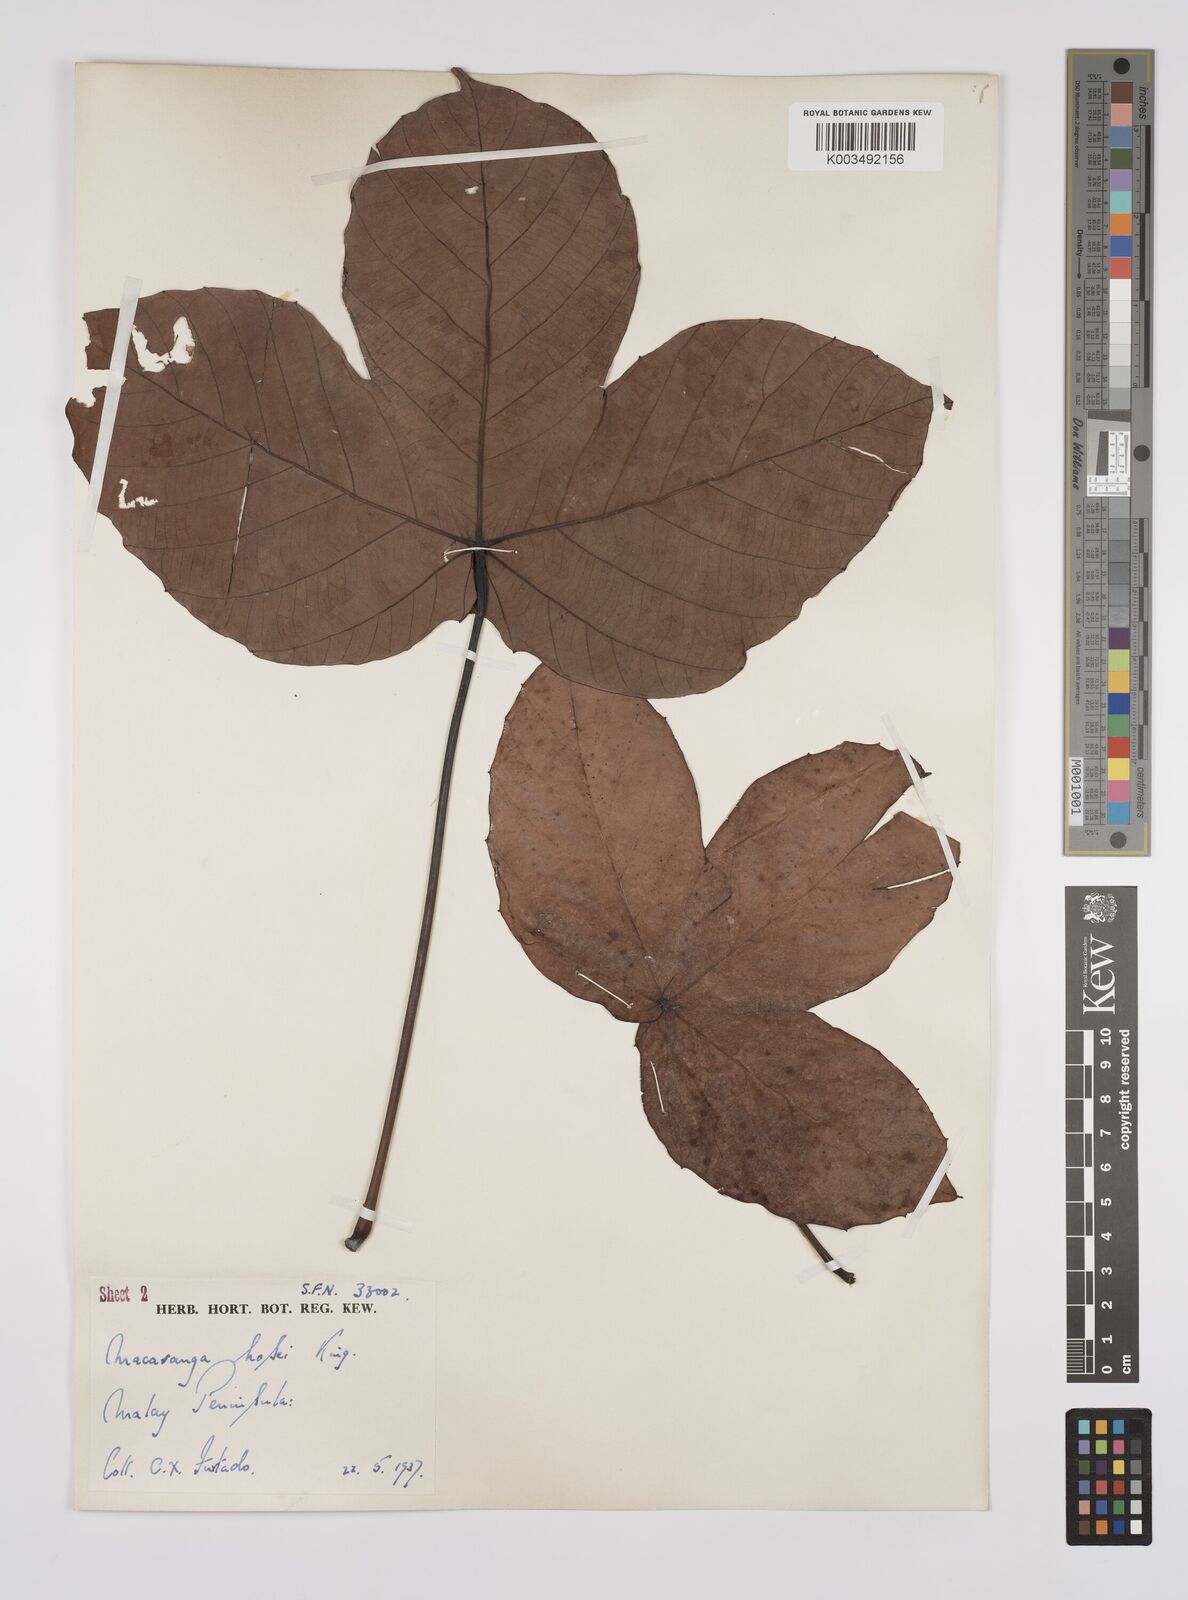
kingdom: Plantae
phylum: Tracheophyta
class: Magnoliopsida
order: Malpighiales
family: Euphorbiaceae
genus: Macaranga
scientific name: Macaranga hosei
